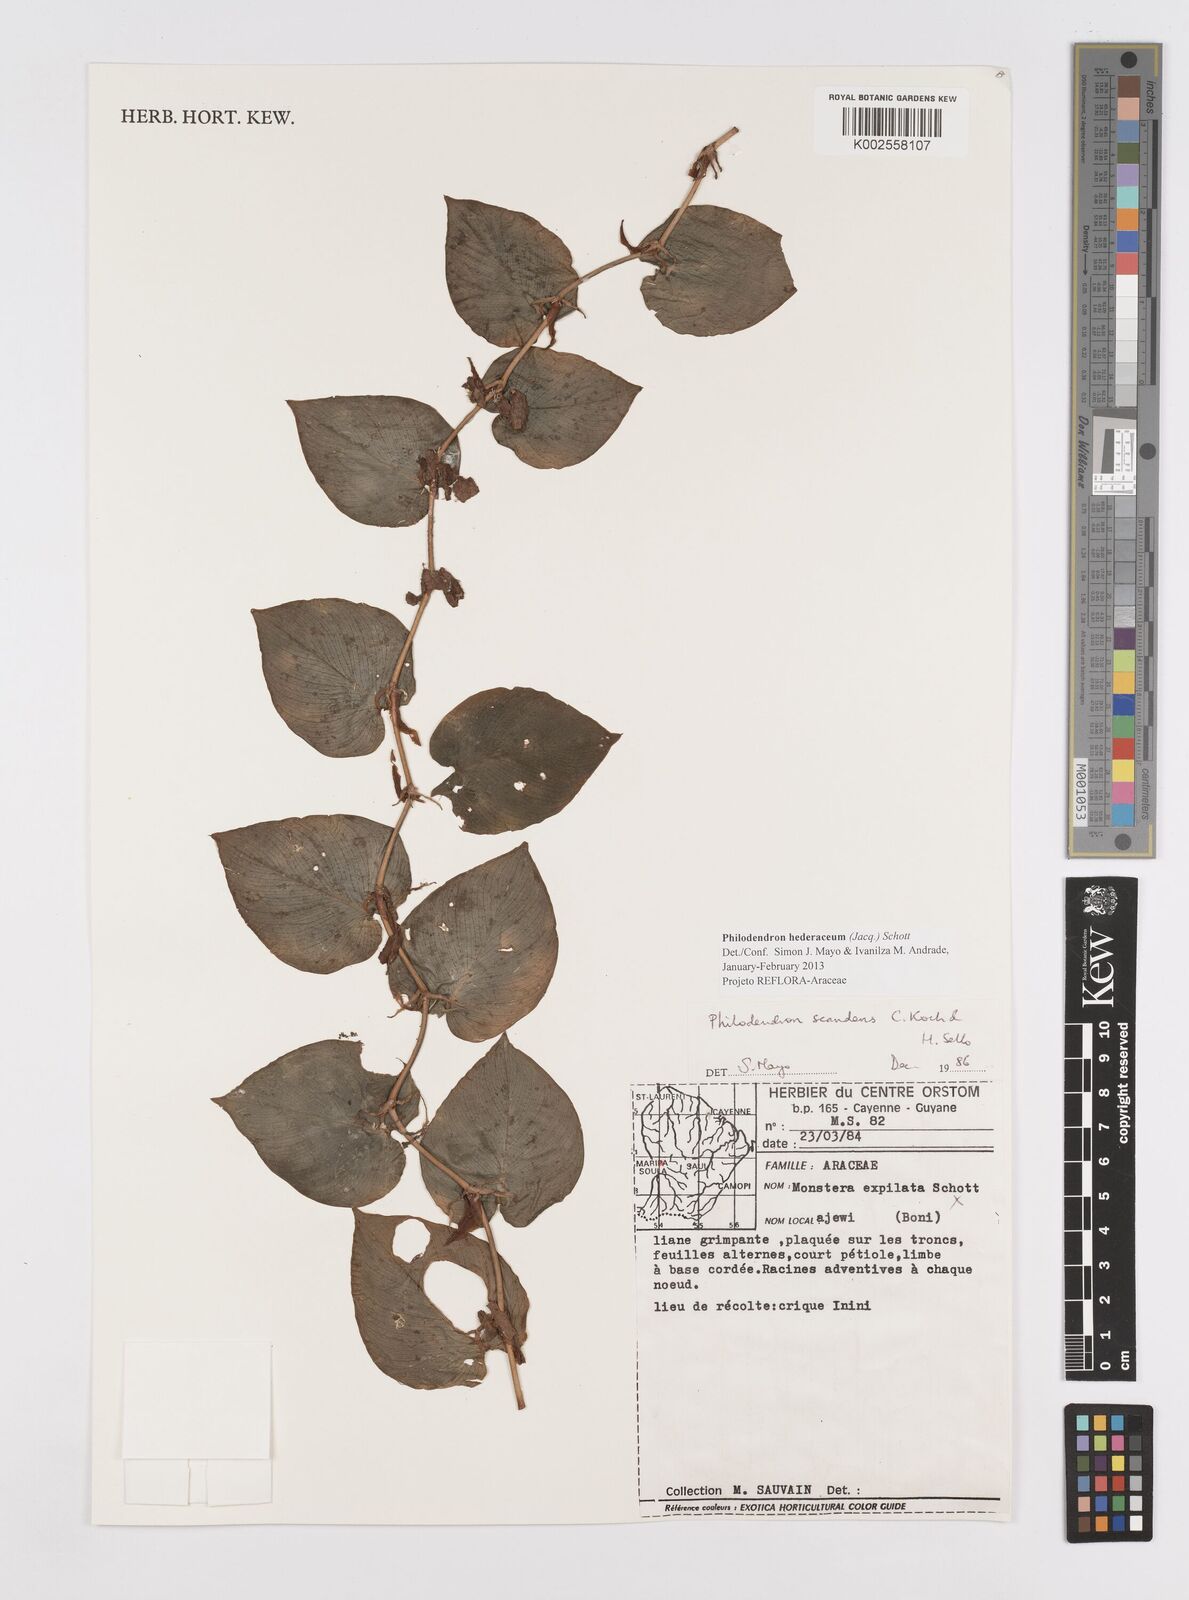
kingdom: Plantae
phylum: Tracheophyta
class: Liliopsida
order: Alismatales
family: Araceae
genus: Philodendron
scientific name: Philodendron hederaceum
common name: Vilevine
